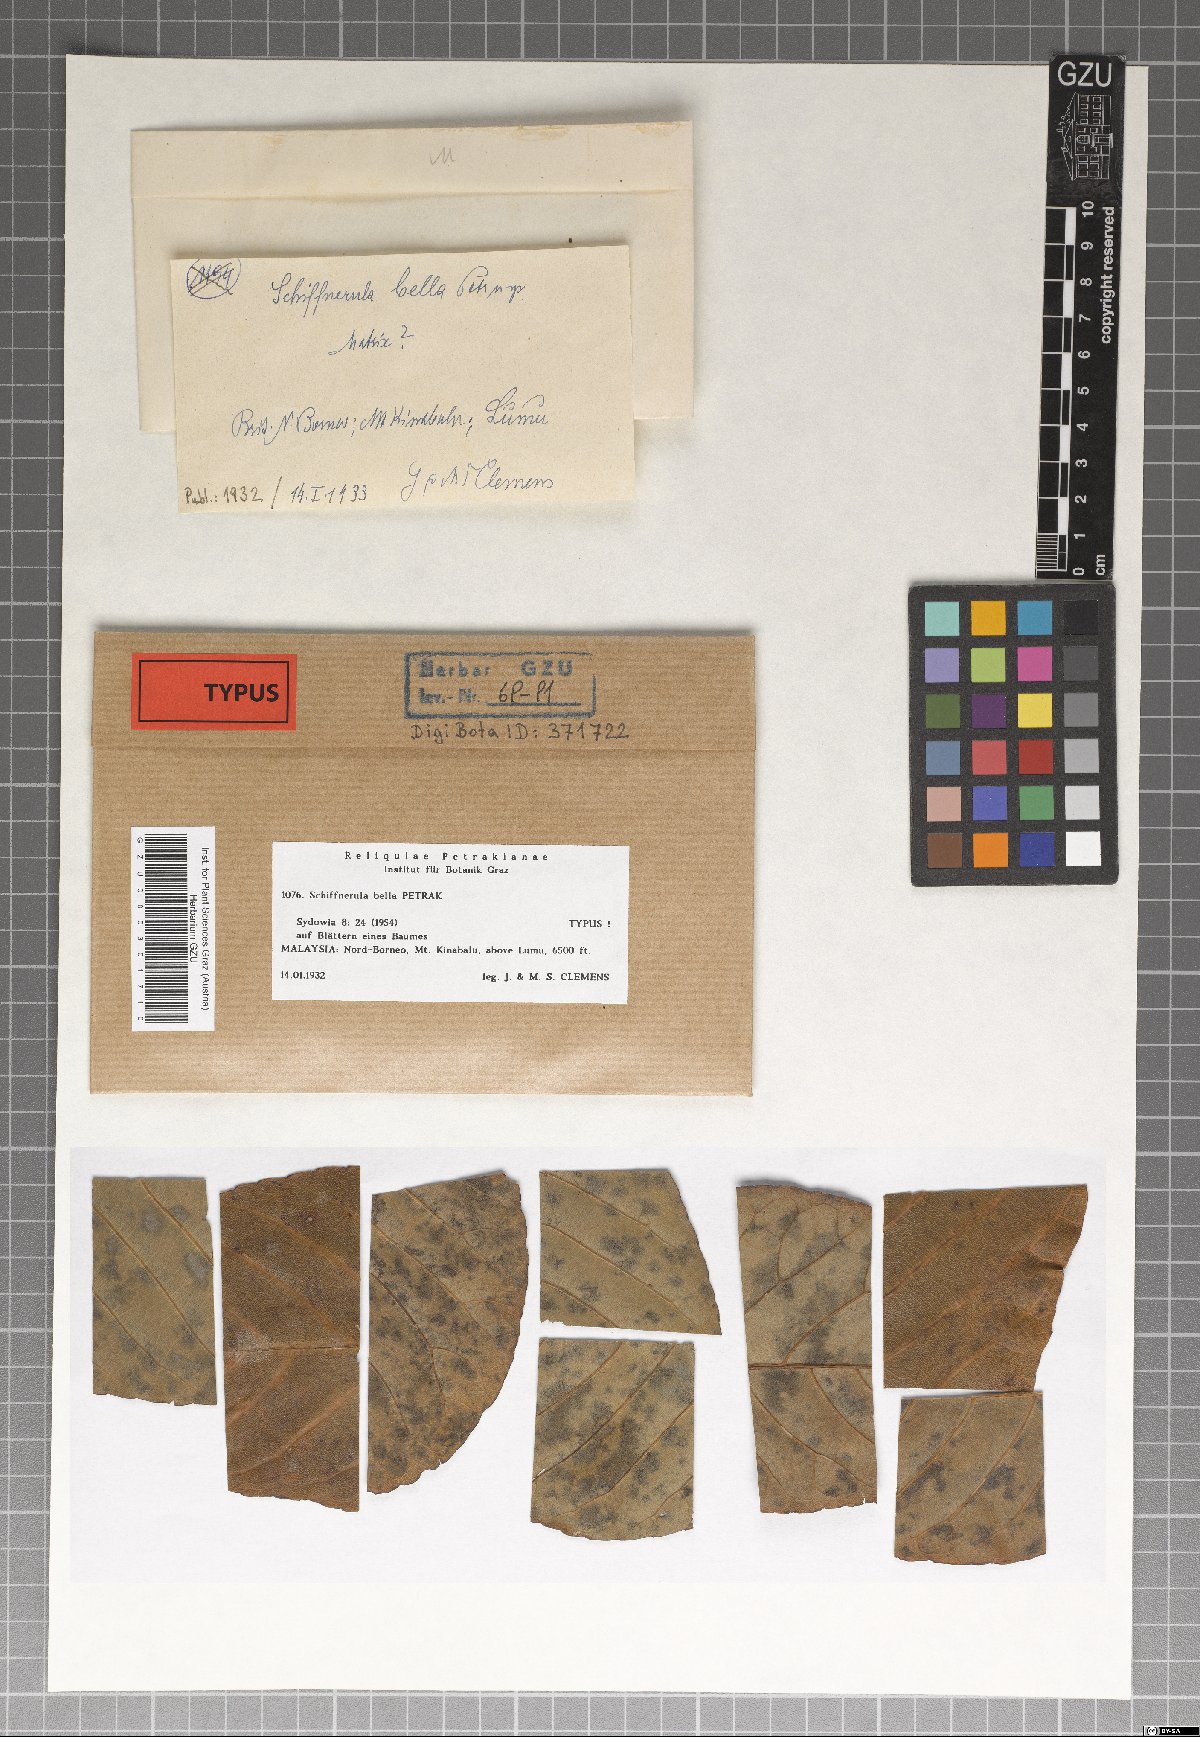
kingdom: Fungi
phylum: Ascomycota
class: Dothideomycetes
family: Englerulaceae
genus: Schiffnerula
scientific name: Schiffnerula bella
